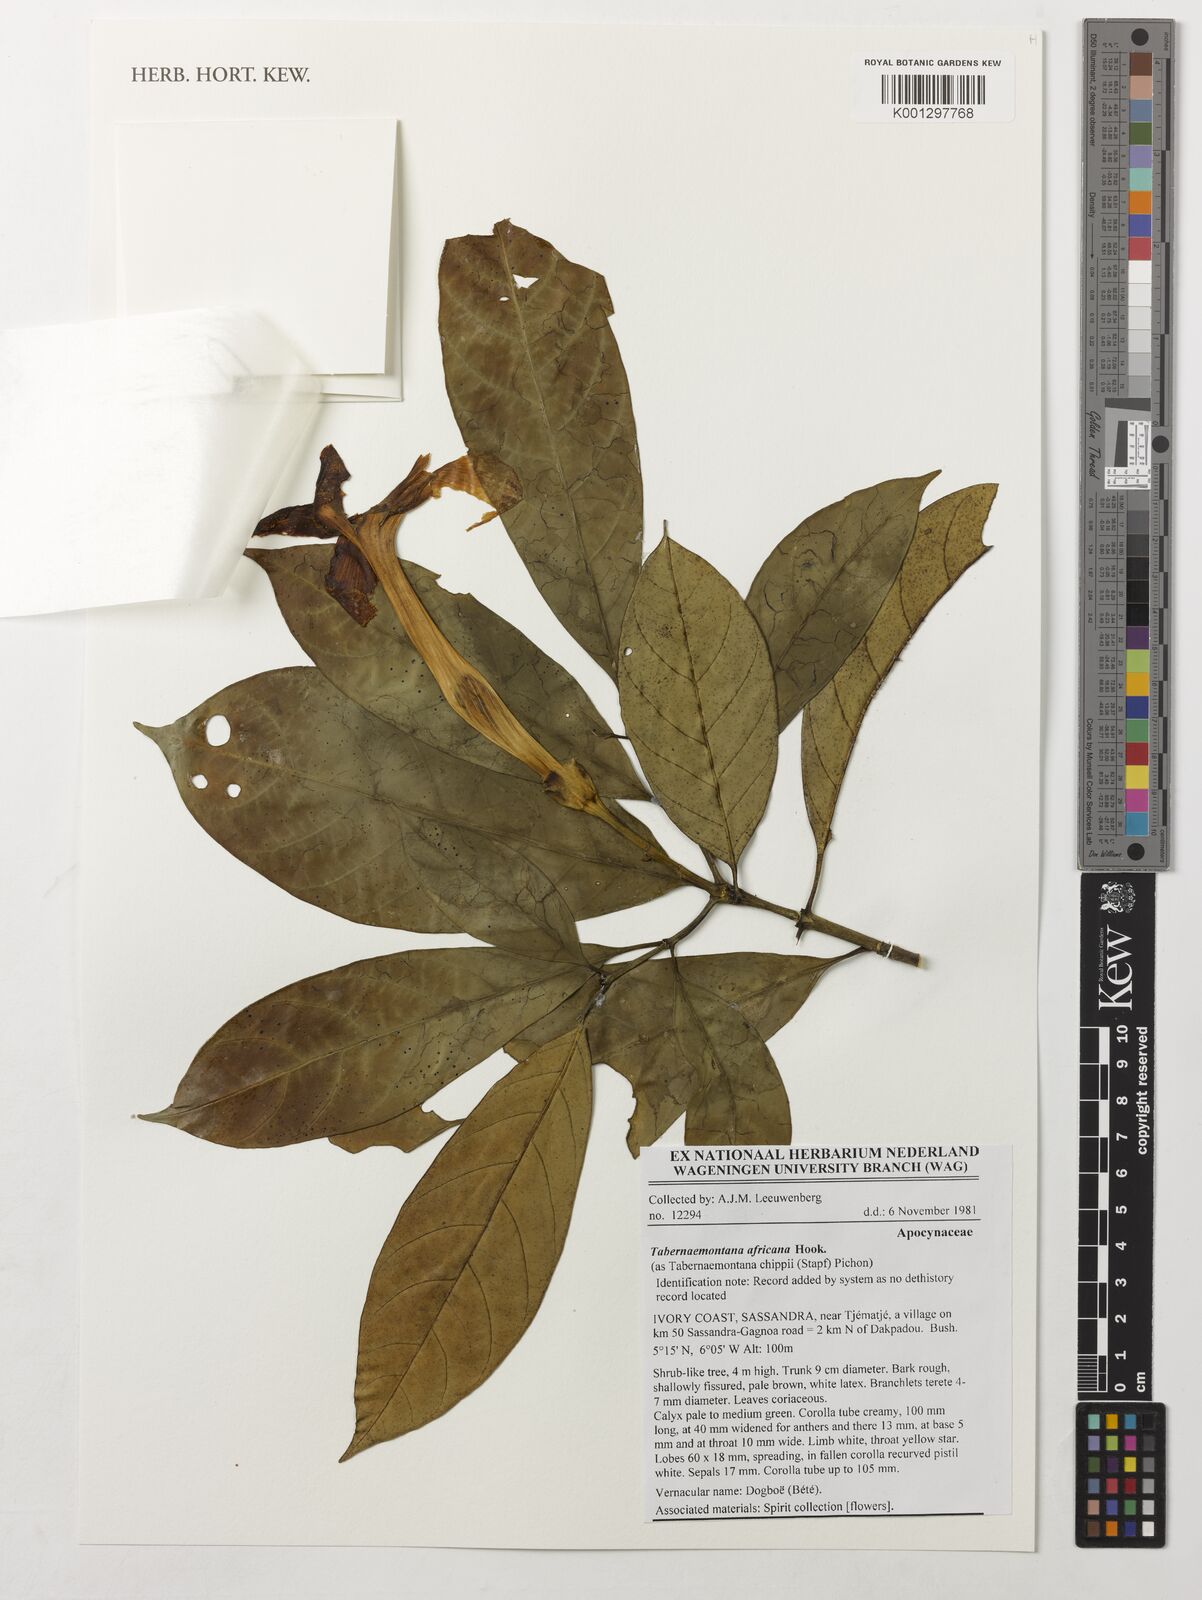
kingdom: Plantae
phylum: Tracheophyta
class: Magnoliopsida
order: Gentianales
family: Apocynaceae
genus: Tabernaemontana
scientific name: Tabernaemontana africana
